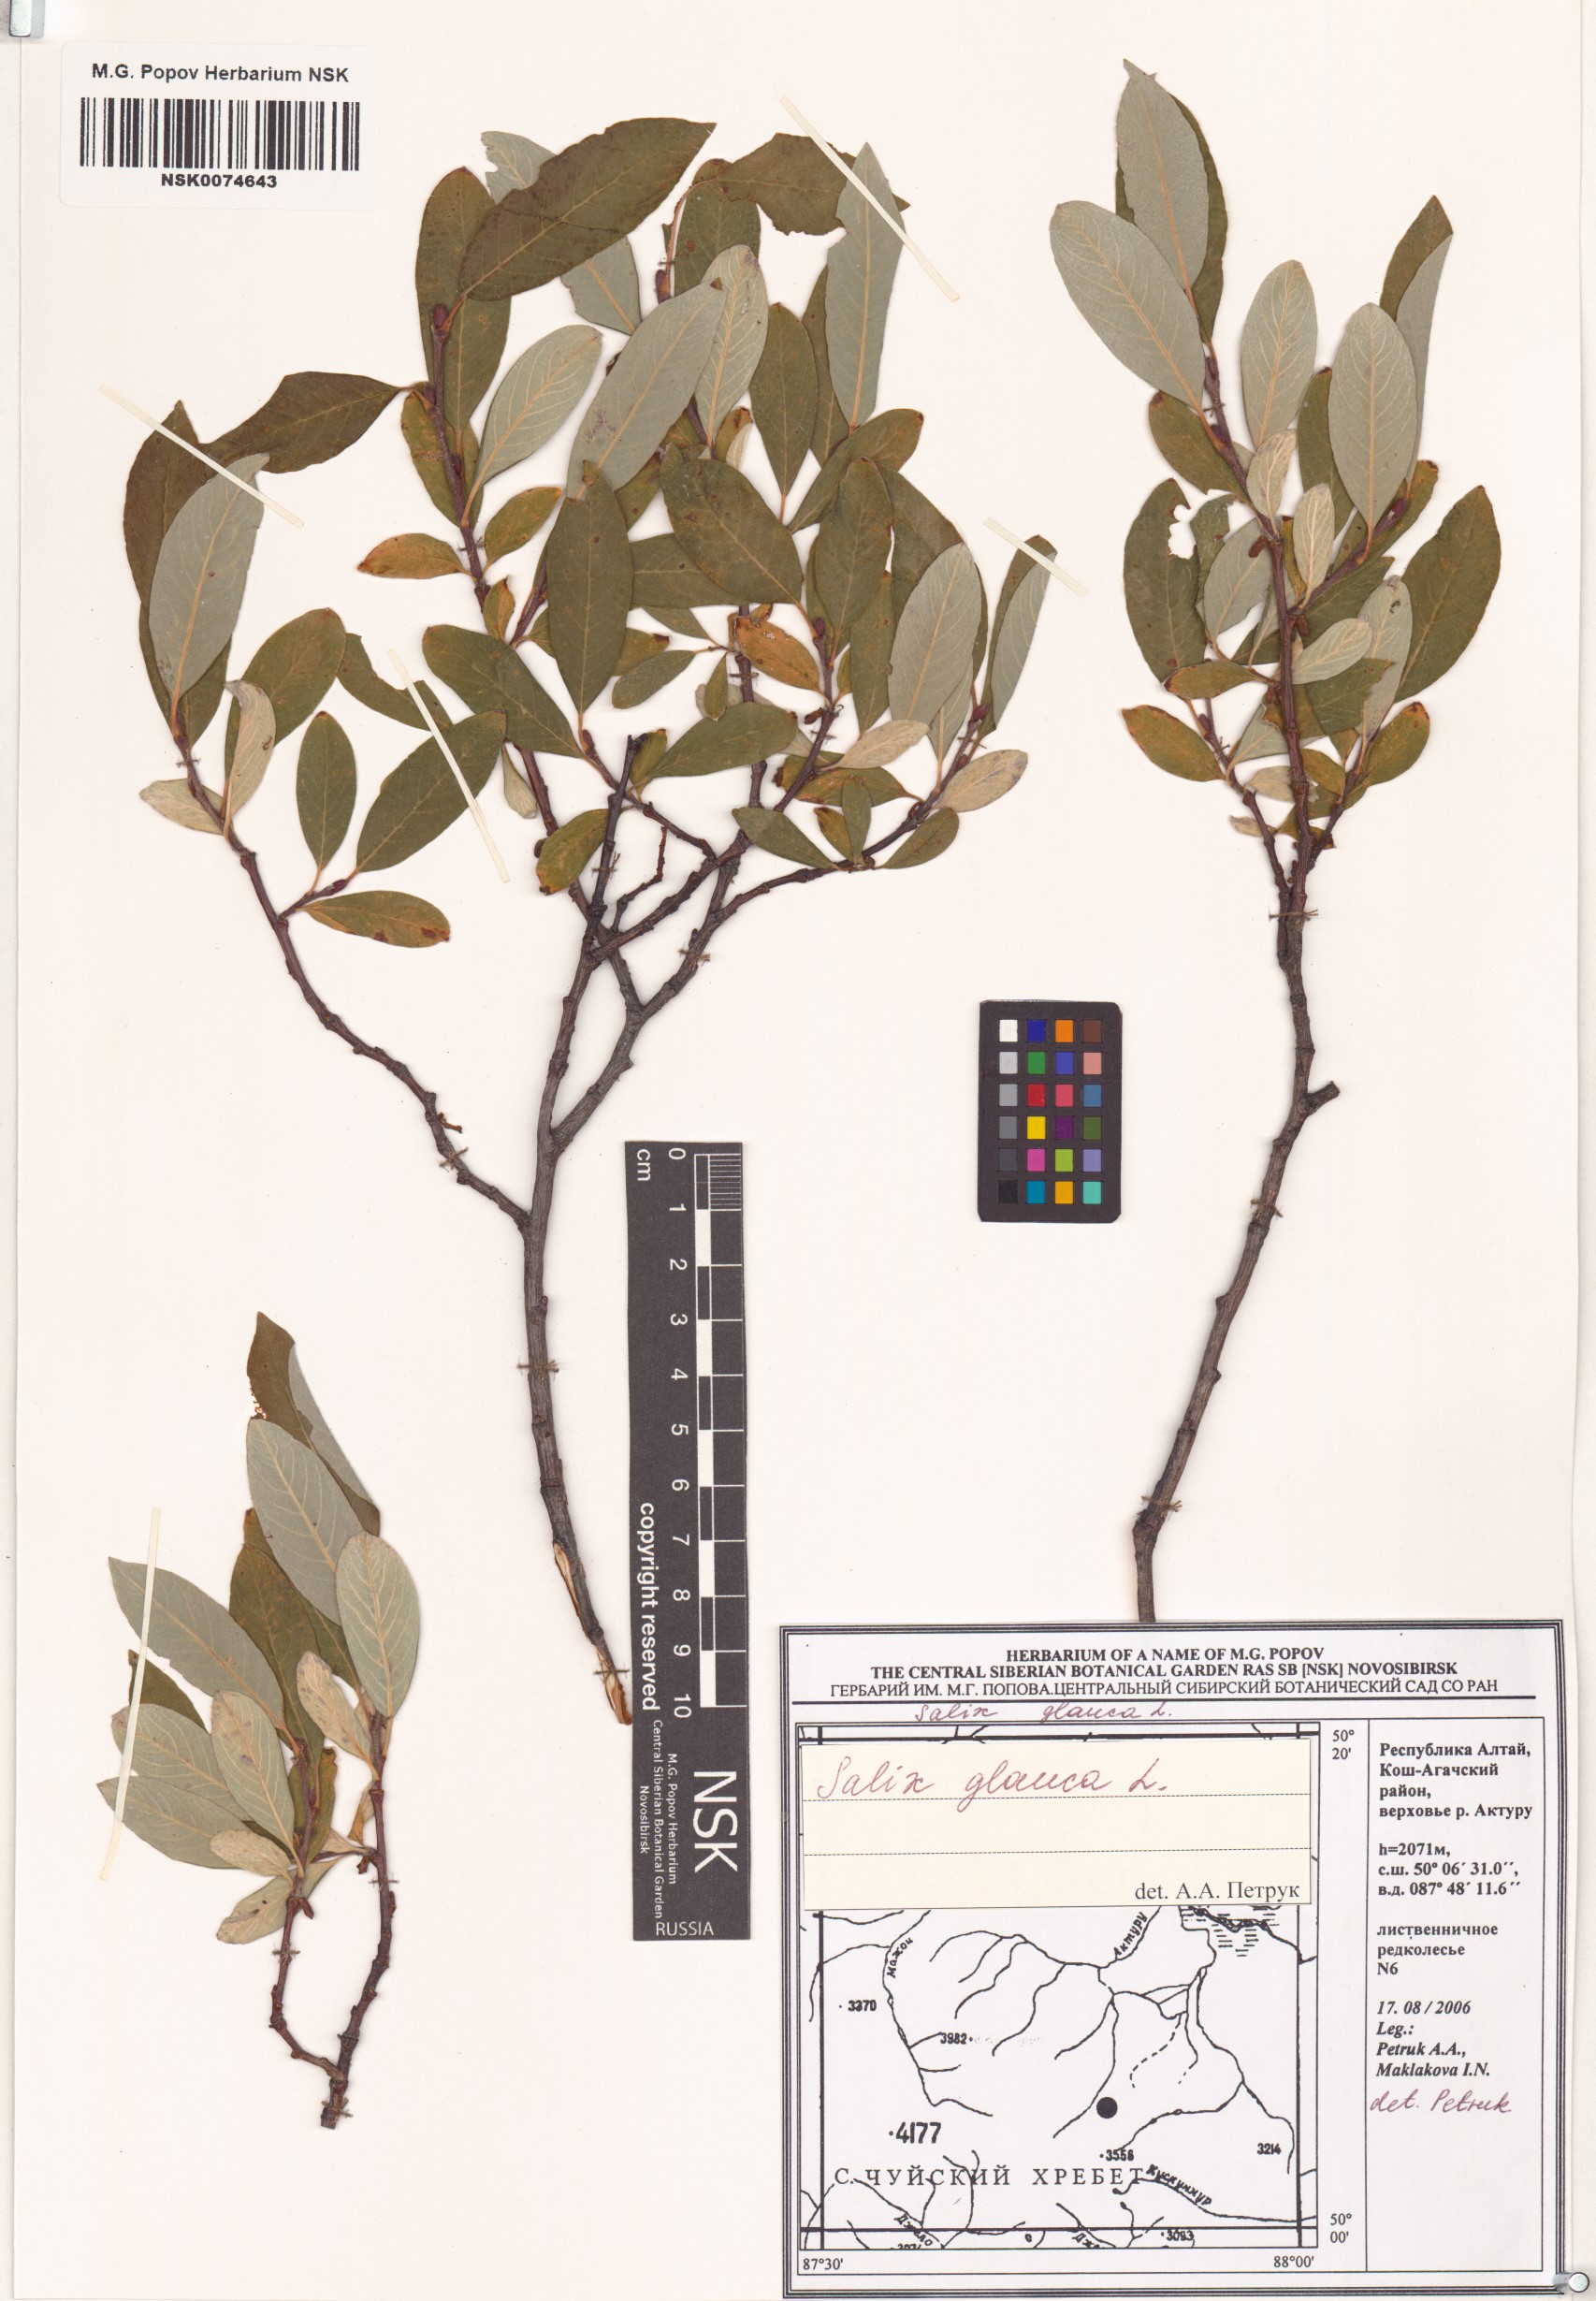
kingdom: Plantae
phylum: Tracheophyta
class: Magnoliopsida
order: Malpighiales
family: Salicaceae
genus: Salix
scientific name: Salix glauca
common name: Glaucous willow
